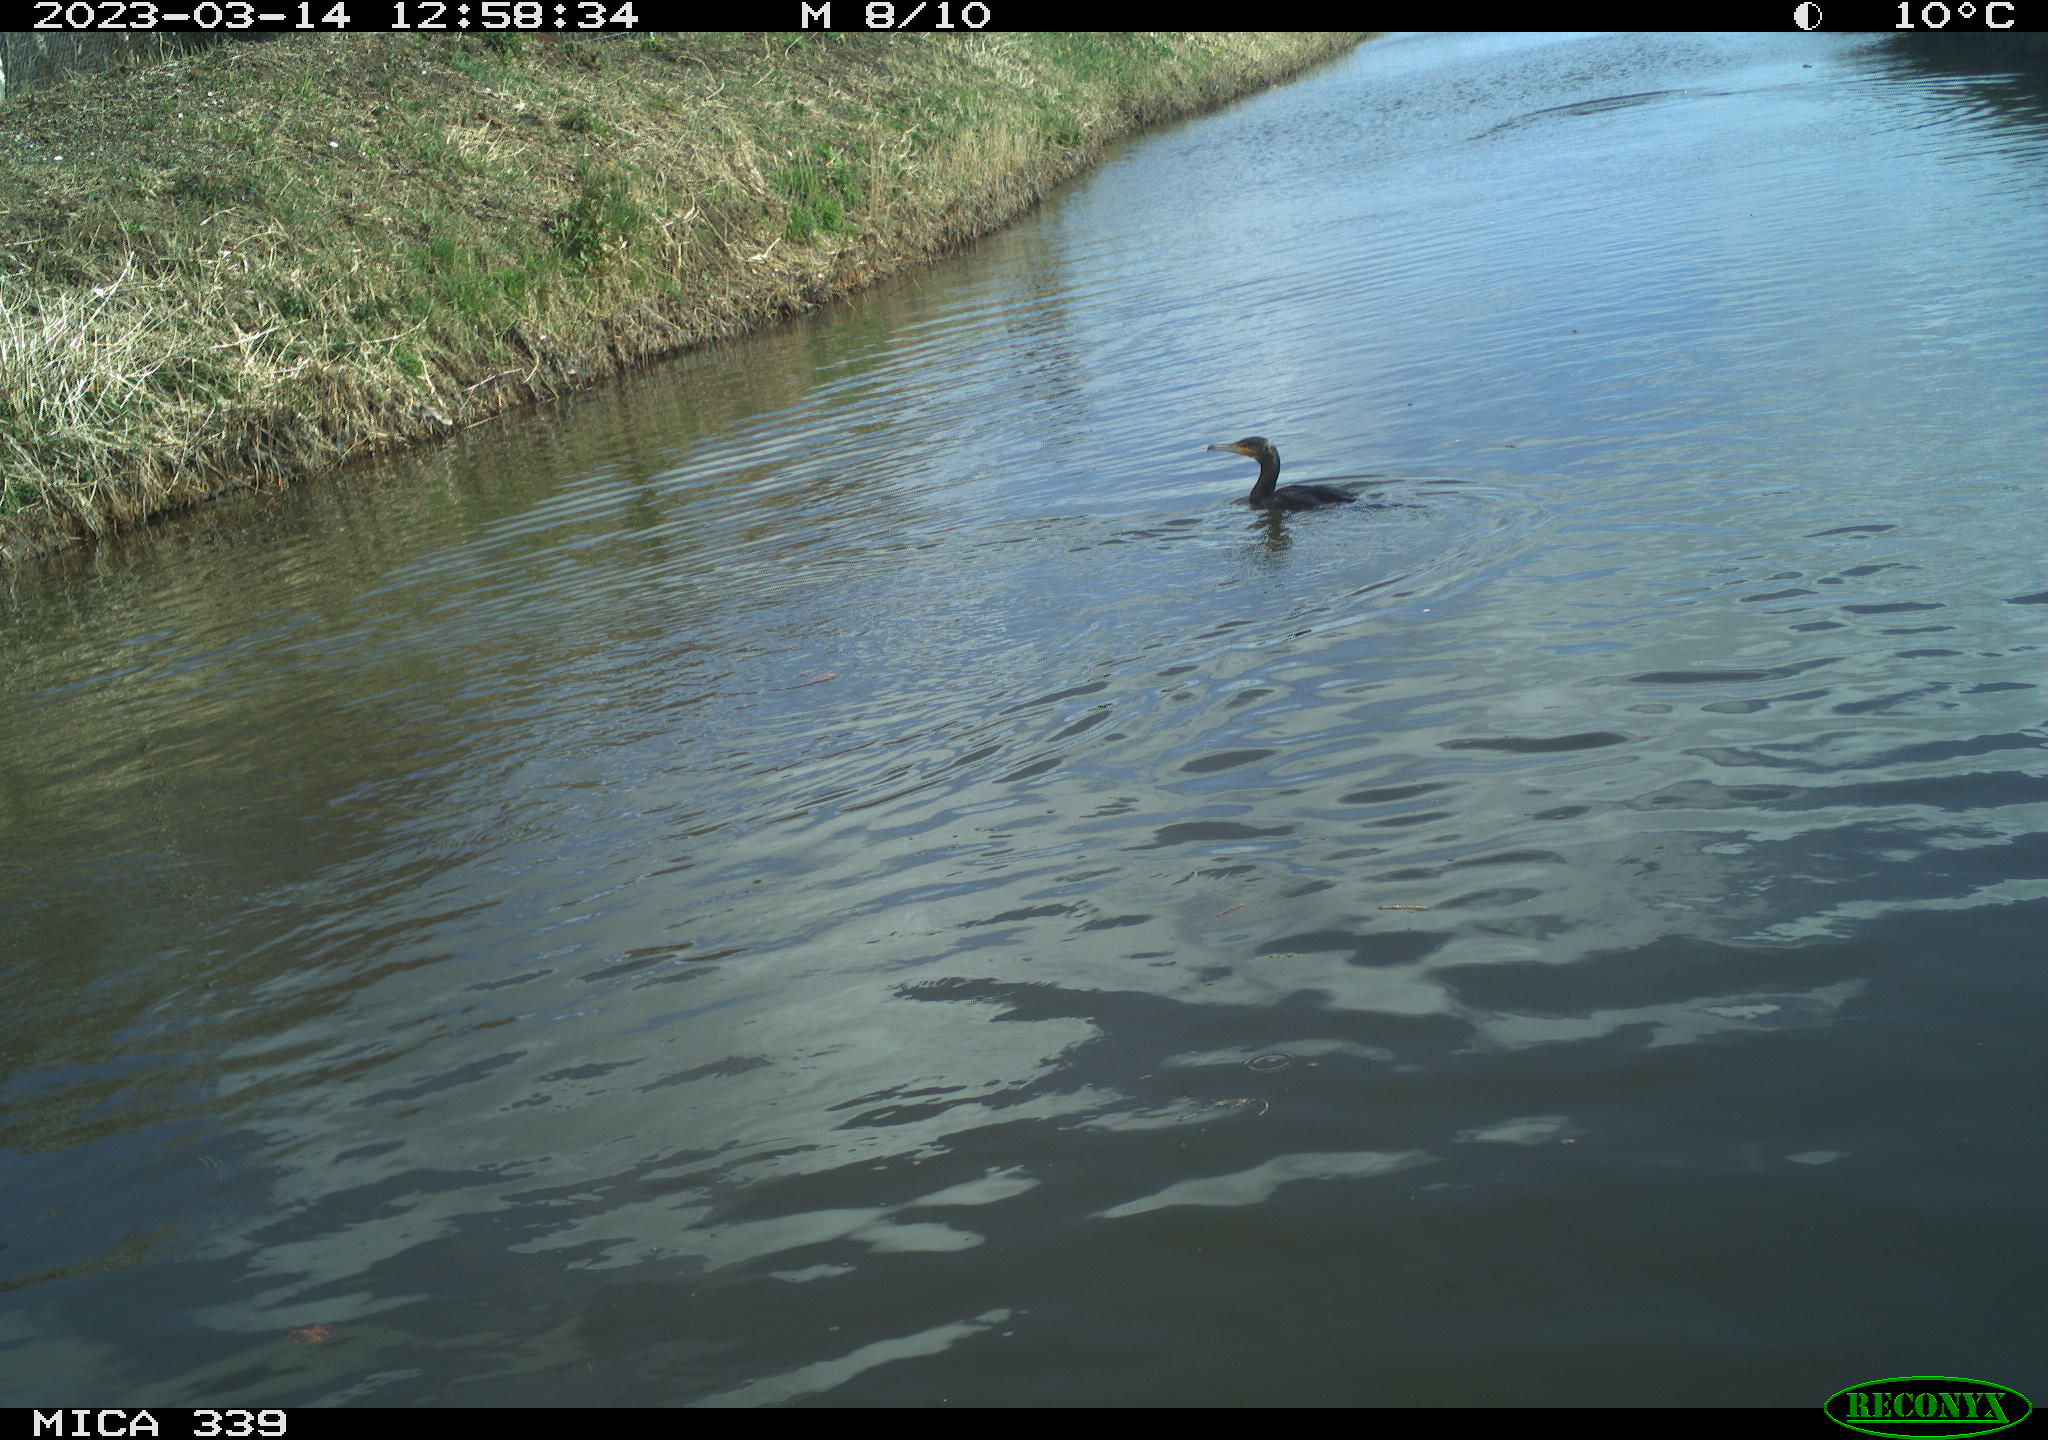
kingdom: Animalia
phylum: Chordata
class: Aves
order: Suliformes
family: Phalacrocoracidae
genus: Phalacrocorax
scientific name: Phalacrocorax carbo
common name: Great cormorant
